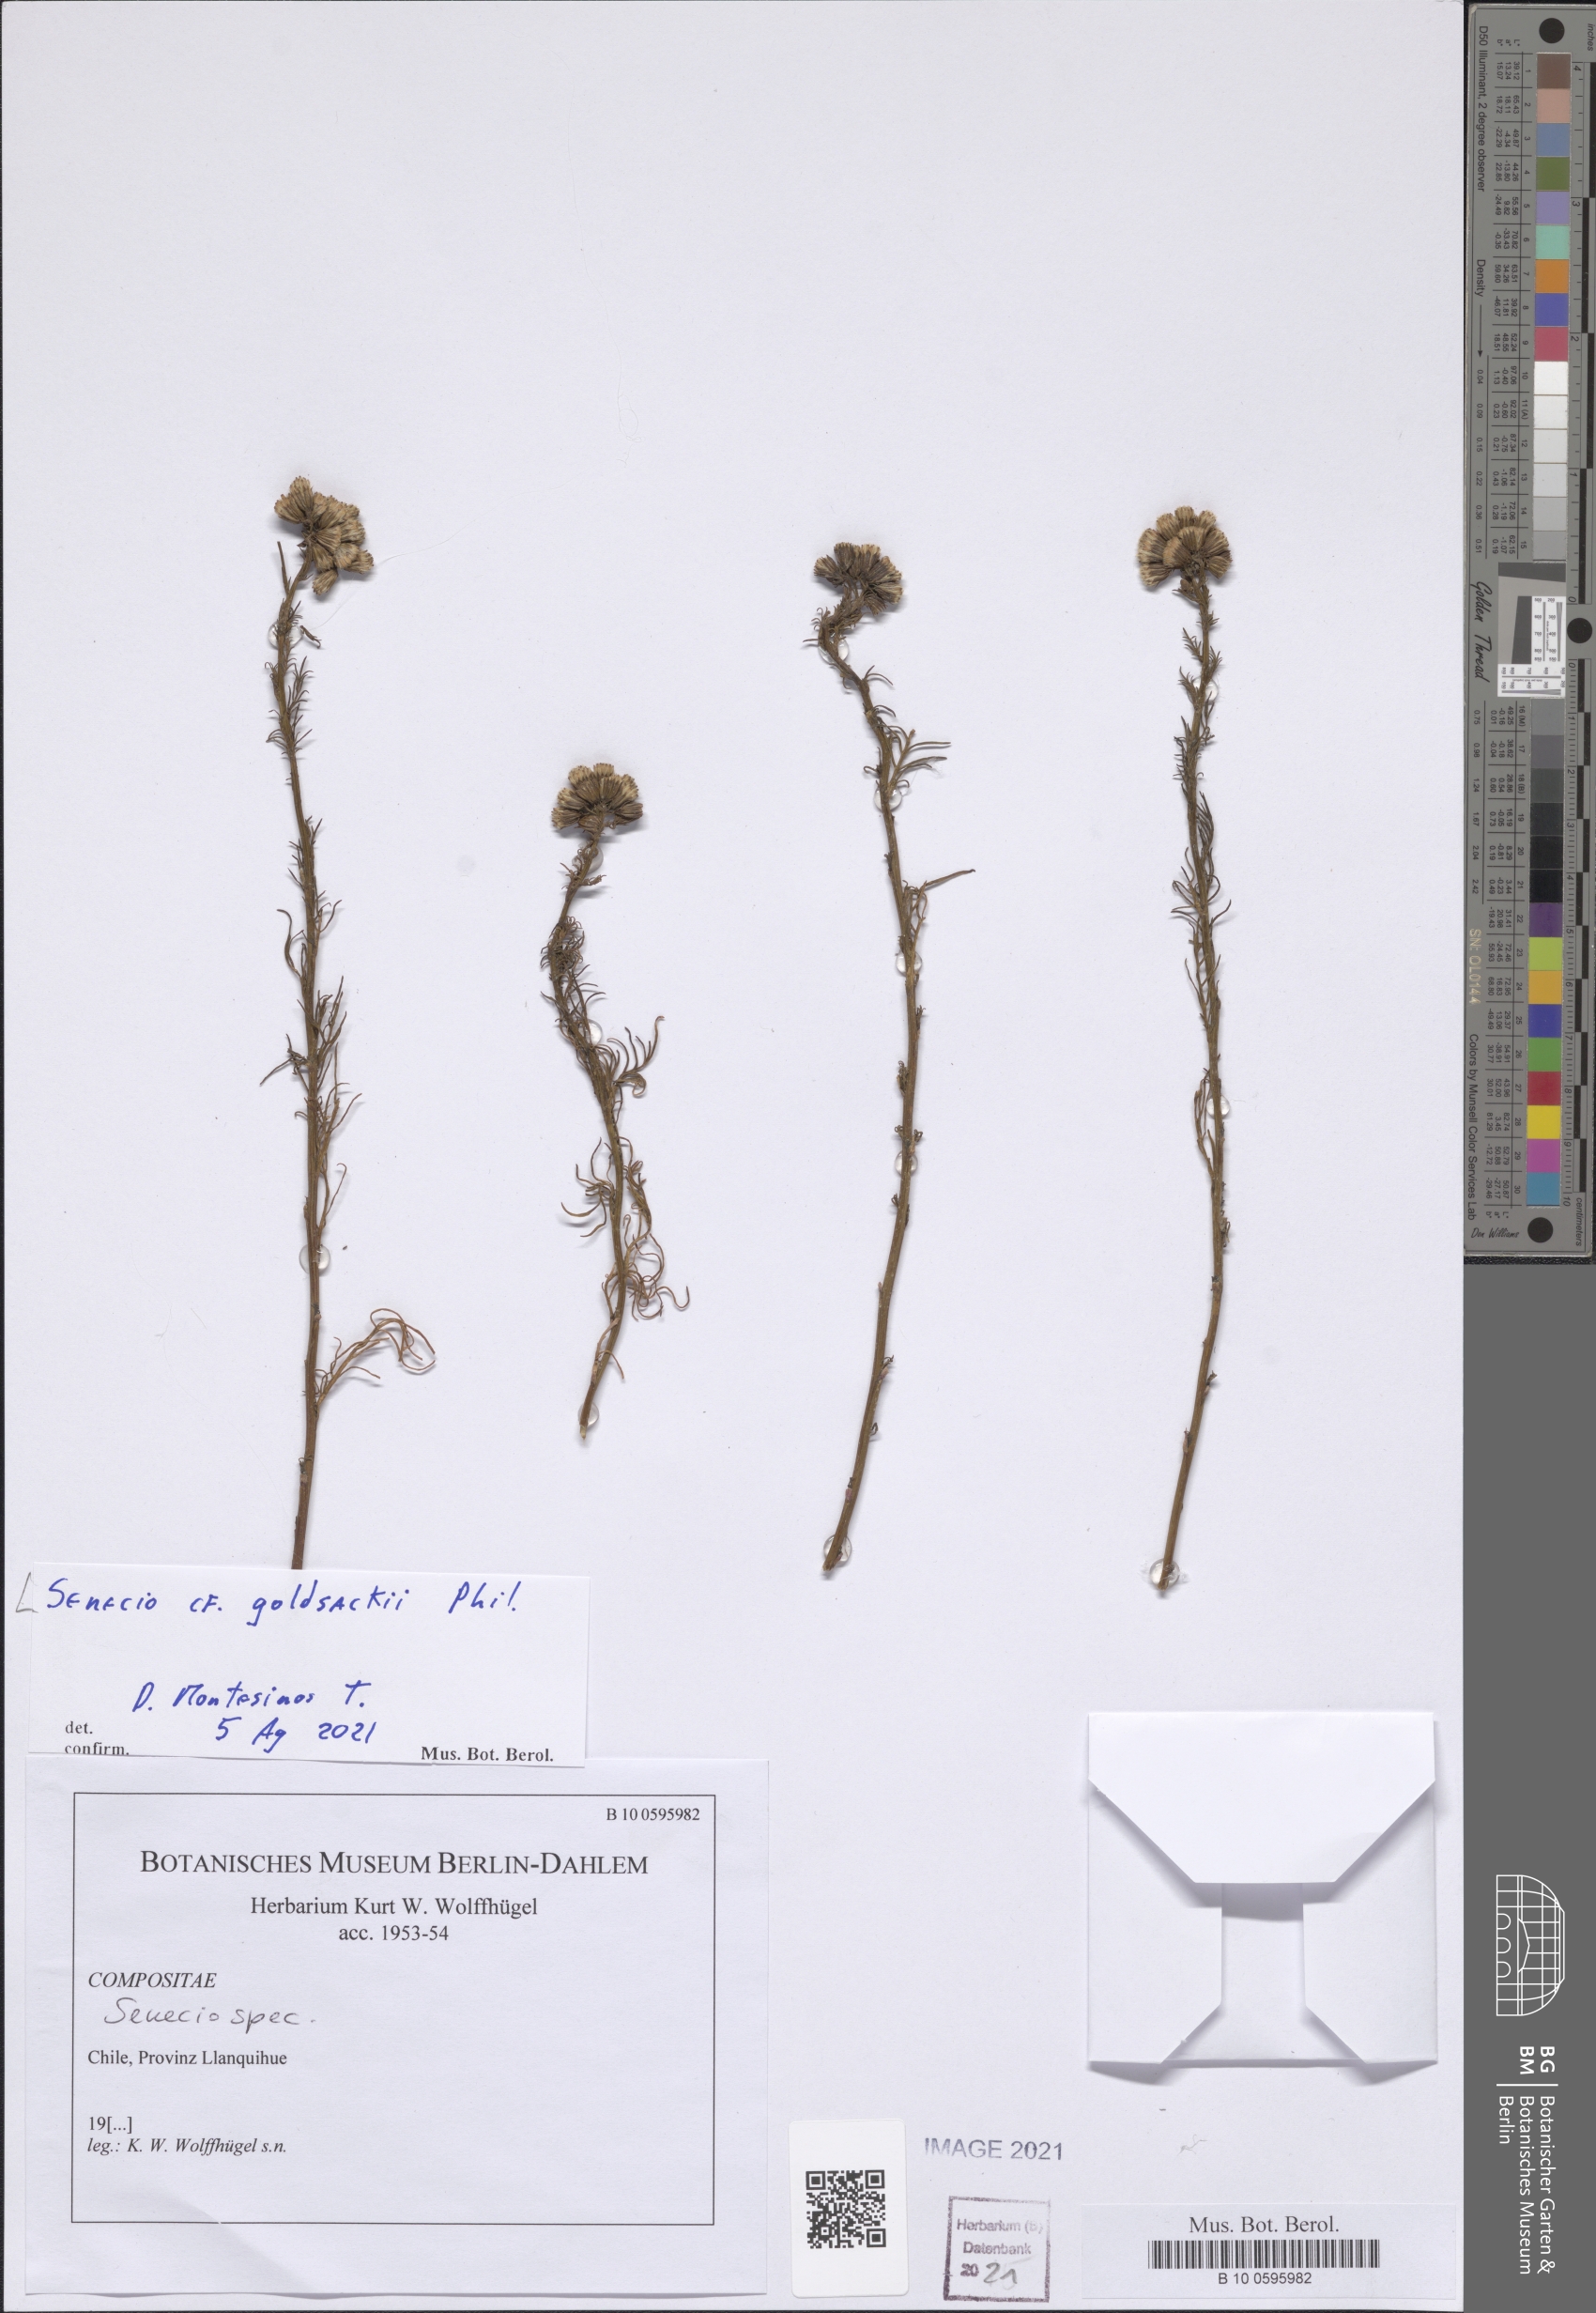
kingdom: Plantae
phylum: Tracheophyta
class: Magnoliopsida
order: Asterales
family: Asteraceae
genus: Senecio
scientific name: Senecio goldsackii
